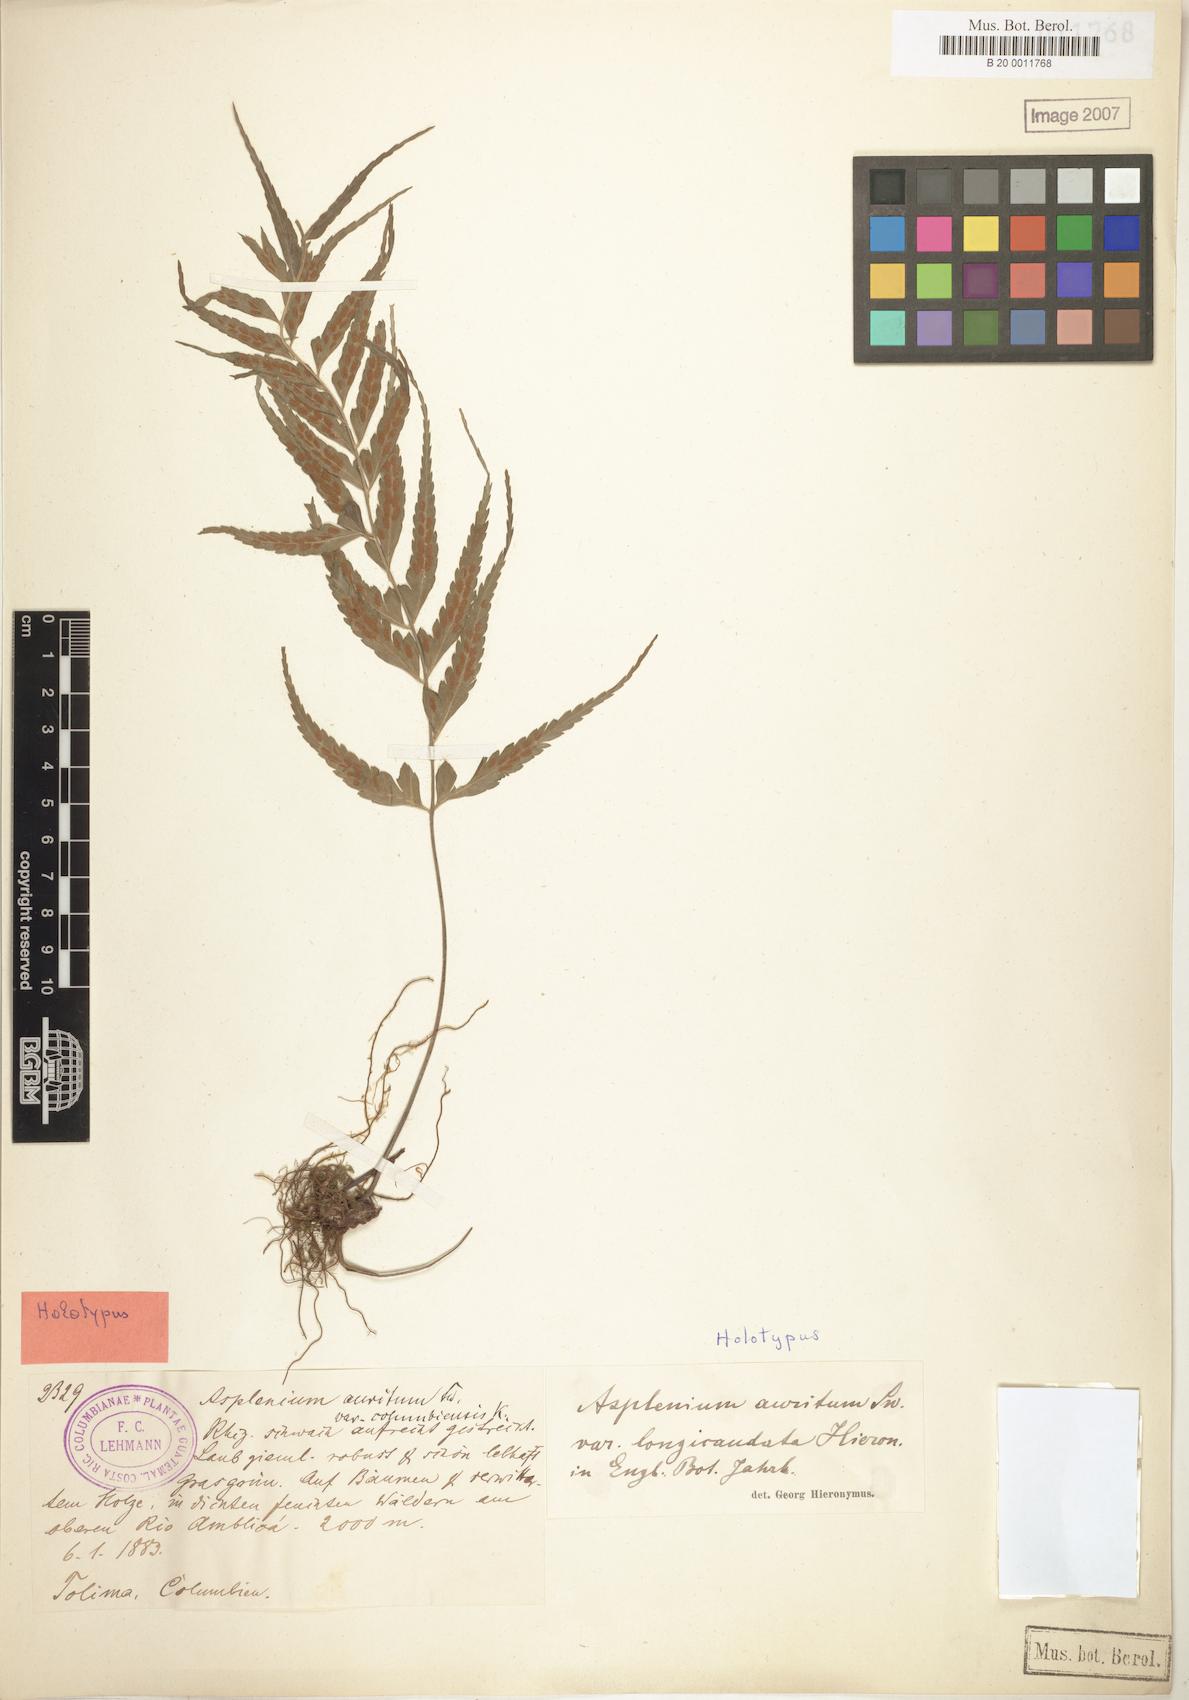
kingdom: Plantae
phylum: Tracheophyta
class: Polypodiopsida
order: Polypodiales
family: Aspleniaceae
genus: Asplenium
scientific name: Asplenium auritum
